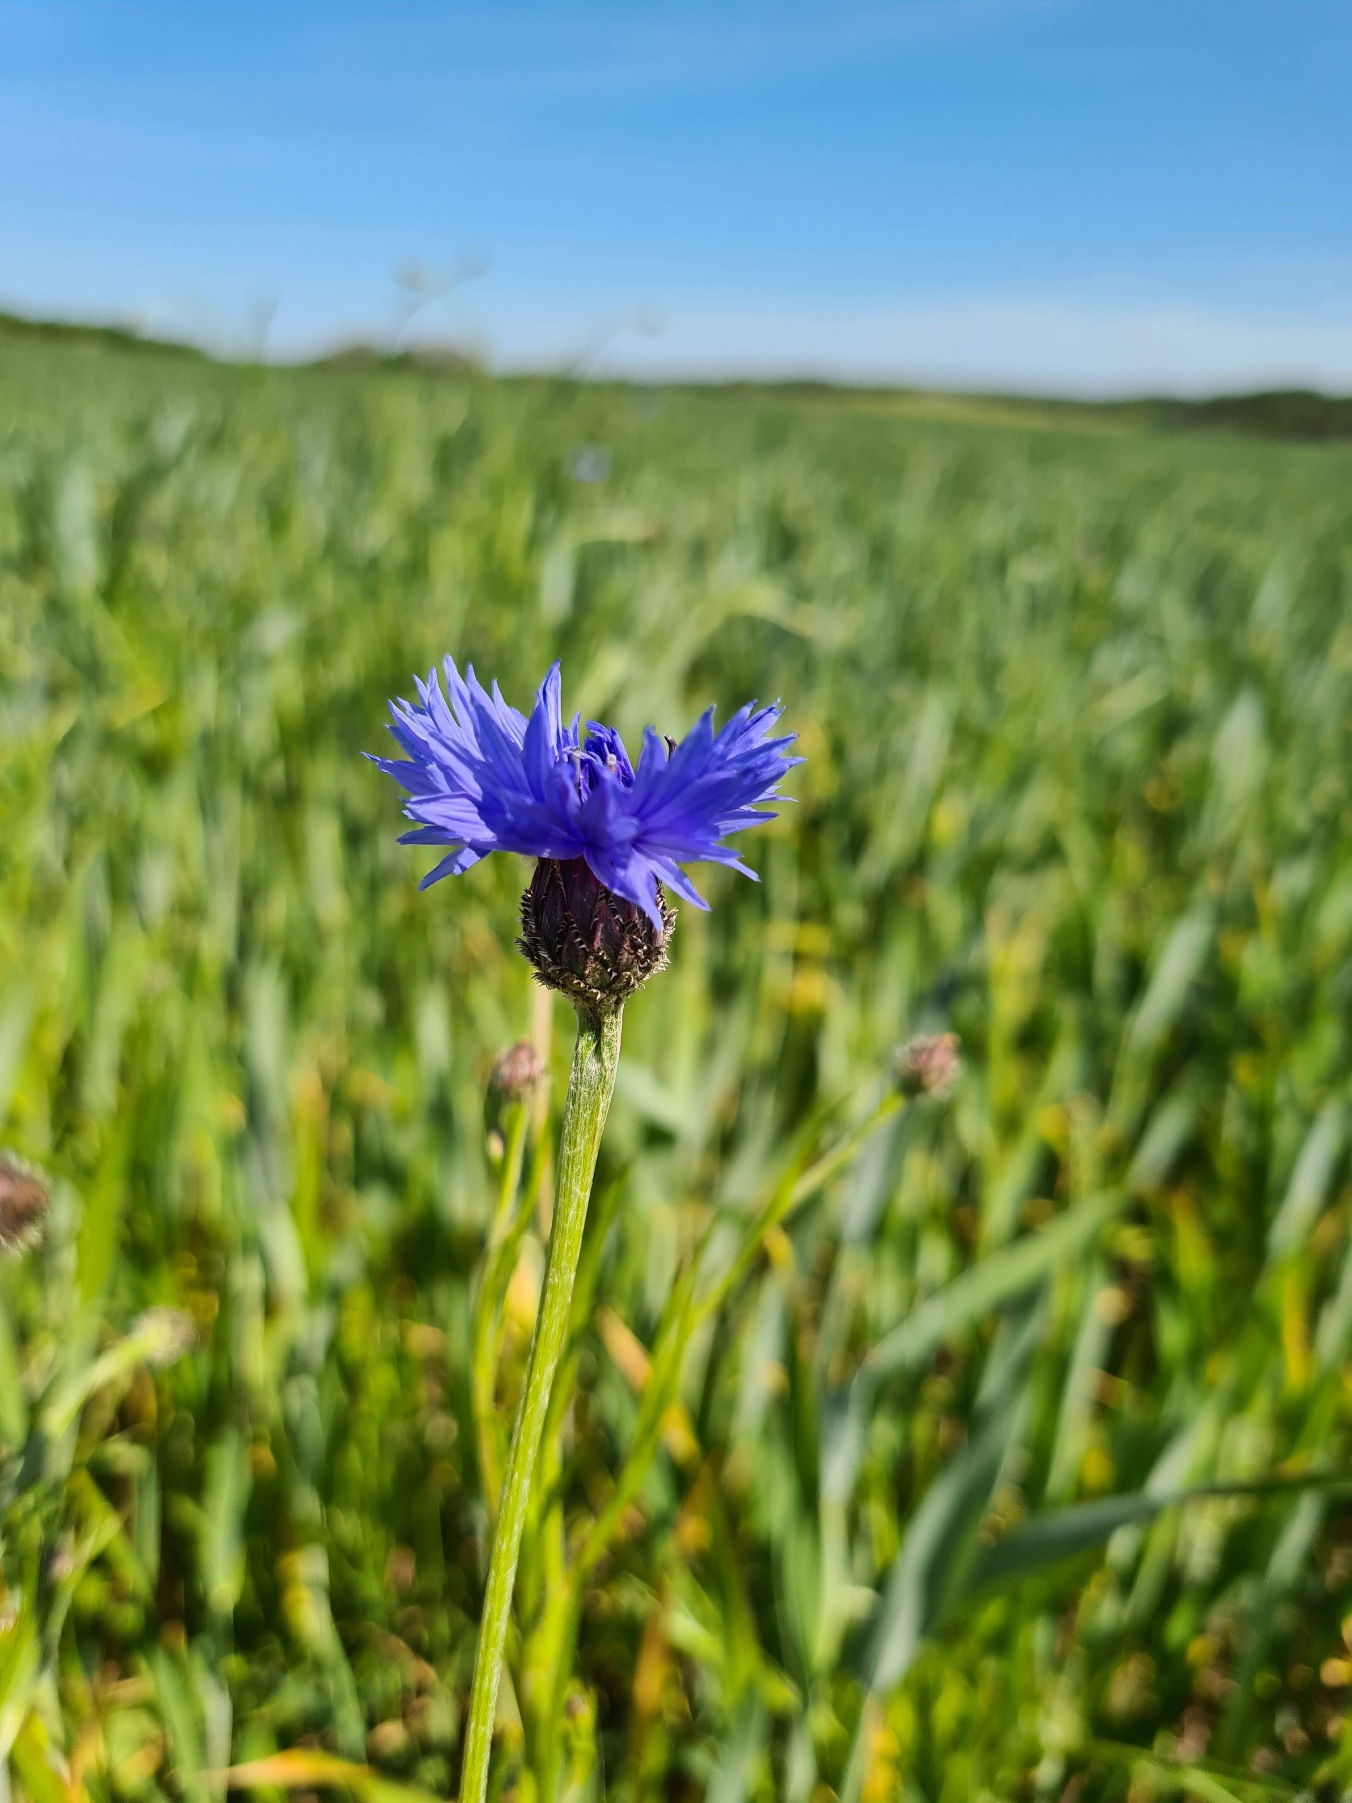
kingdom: Plantae
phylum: Tracheophyta
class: Magnoliopsida
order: Asterales
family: Asteraceae
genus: Centaurea
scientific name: Centaurea cyanus
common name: Kornblomst
